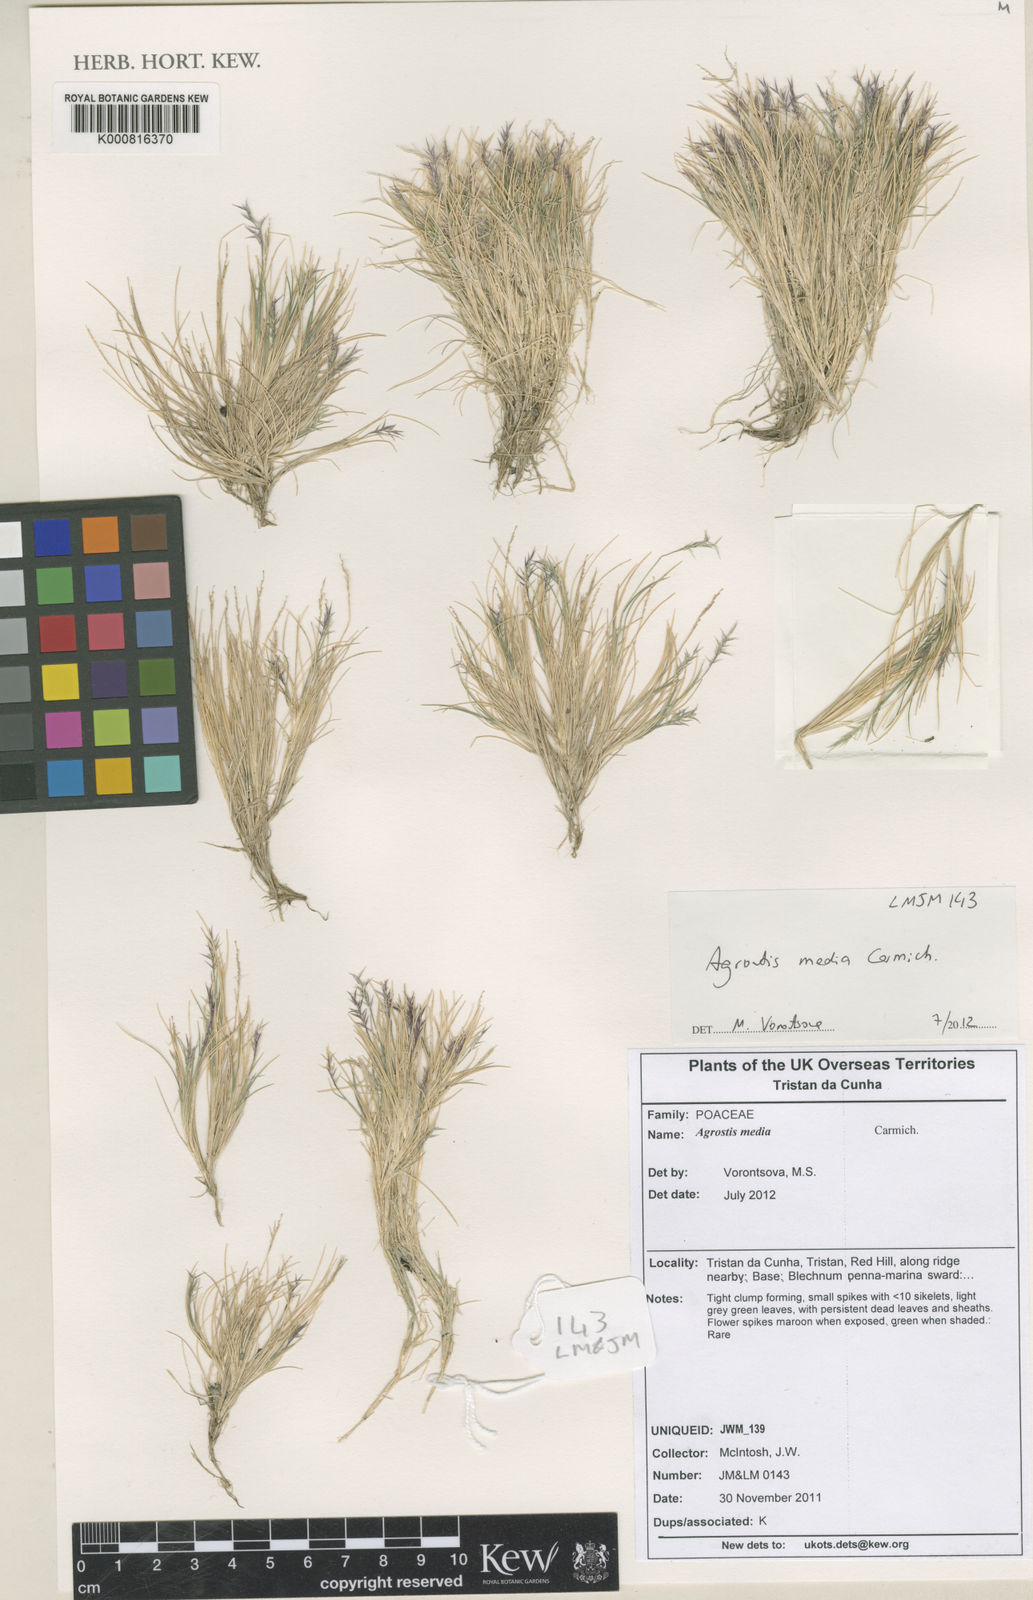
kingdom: Plantae
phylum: Tracheophyta
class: Liliopsida
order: Poales
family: Poaceae
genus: Agrostis
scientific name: Agrostis media
